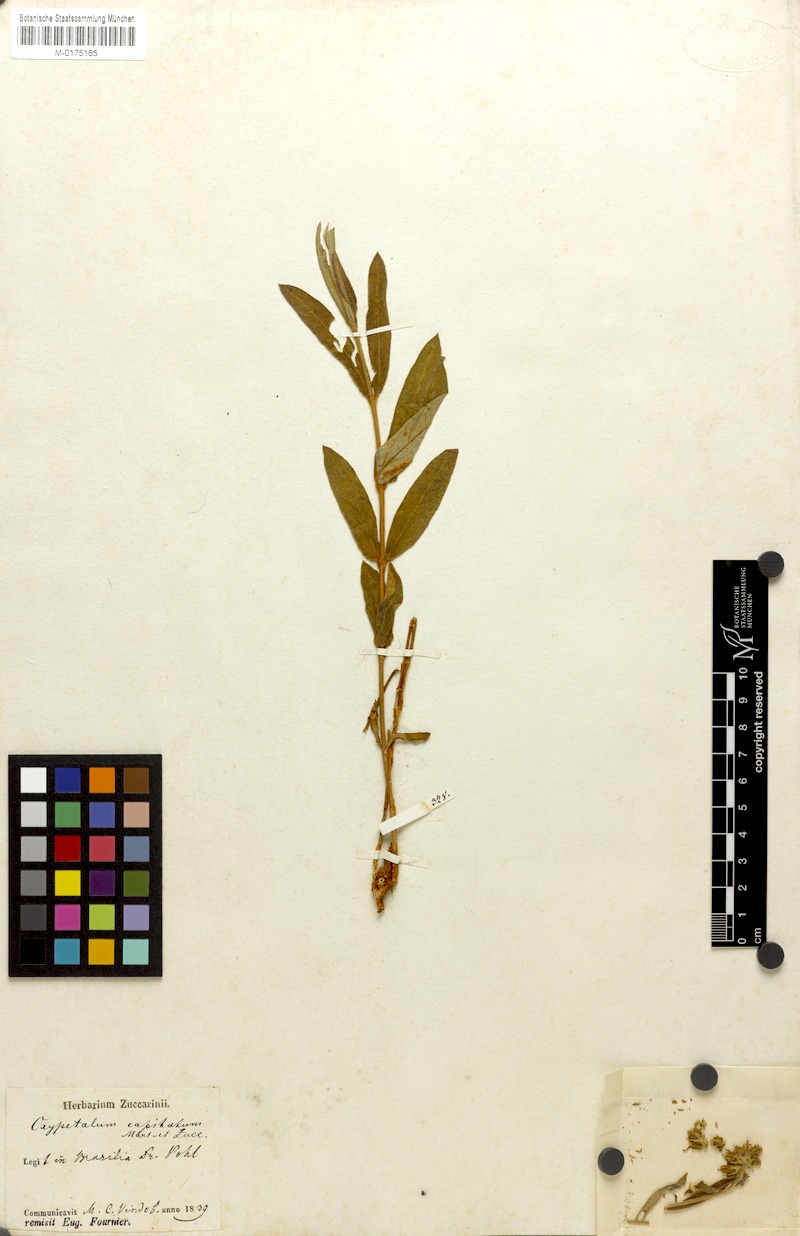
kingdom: Plantae
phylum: Tracheophyta
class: Magnoliopsida
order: Gentianales
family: Apocynaceae
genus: Oxypetalum
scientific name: Oxypetalum capitatum
